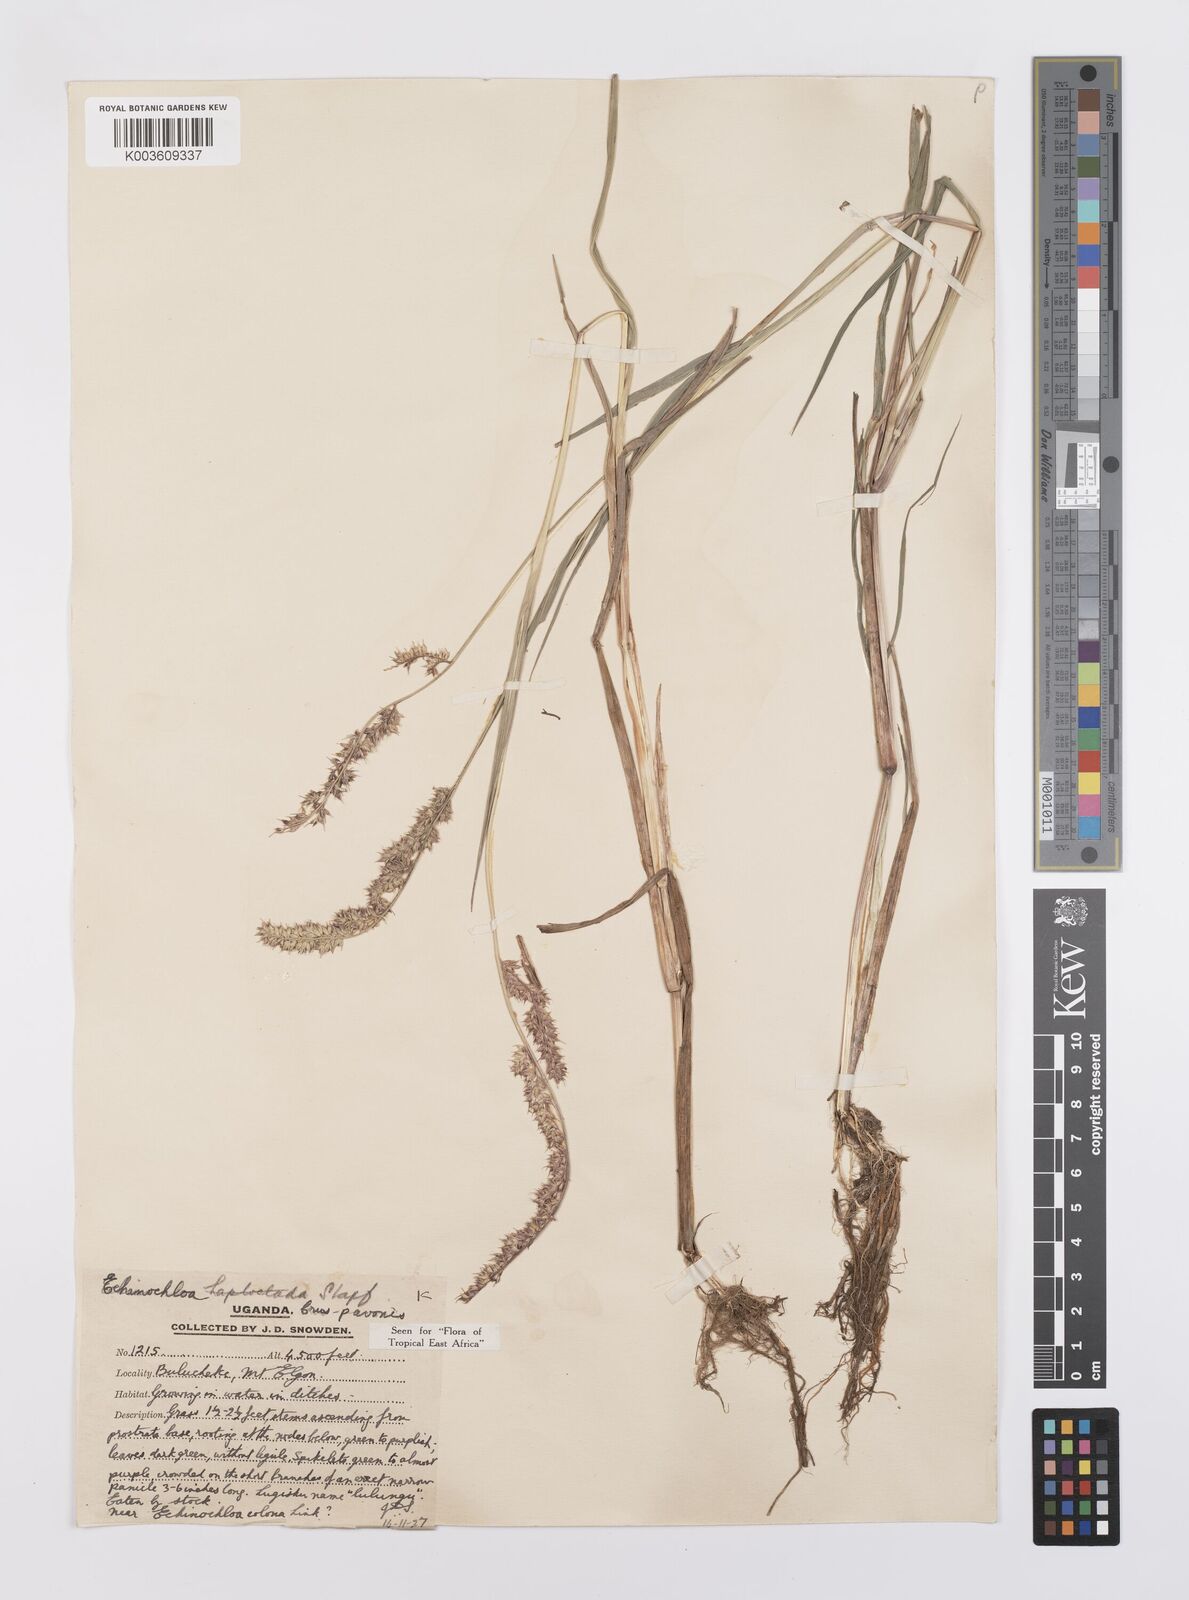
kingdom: Plantae
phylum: Tracheophyta
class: Liliopsida
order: Poales
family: Poaceae
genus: Echinochloa
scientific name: Echinochloa crus-pavonis
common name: Gulf cockspur grass
